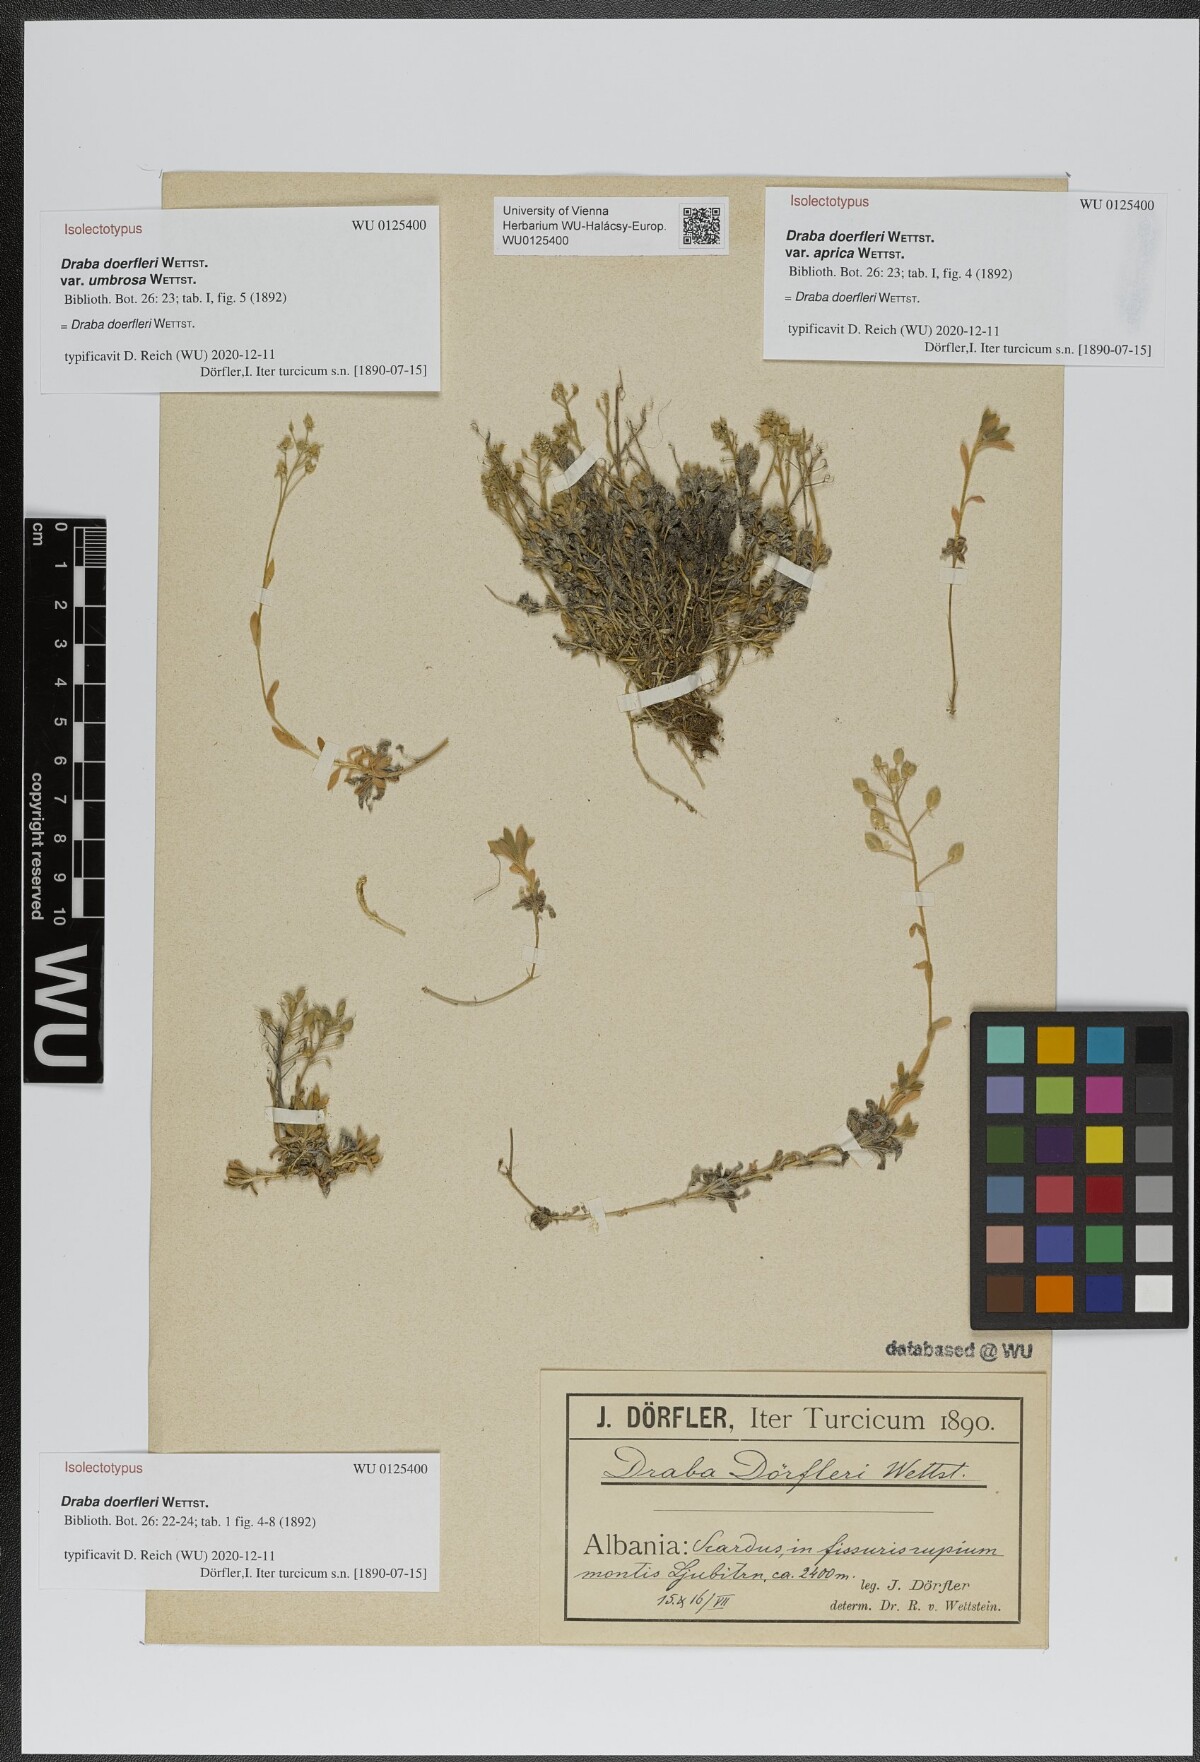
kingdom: Plantae
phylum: Tracheophyta
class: Magnoliopsida
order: Brassicales
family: Brassicaceae
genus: Draba
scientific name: Draba doerfleri
